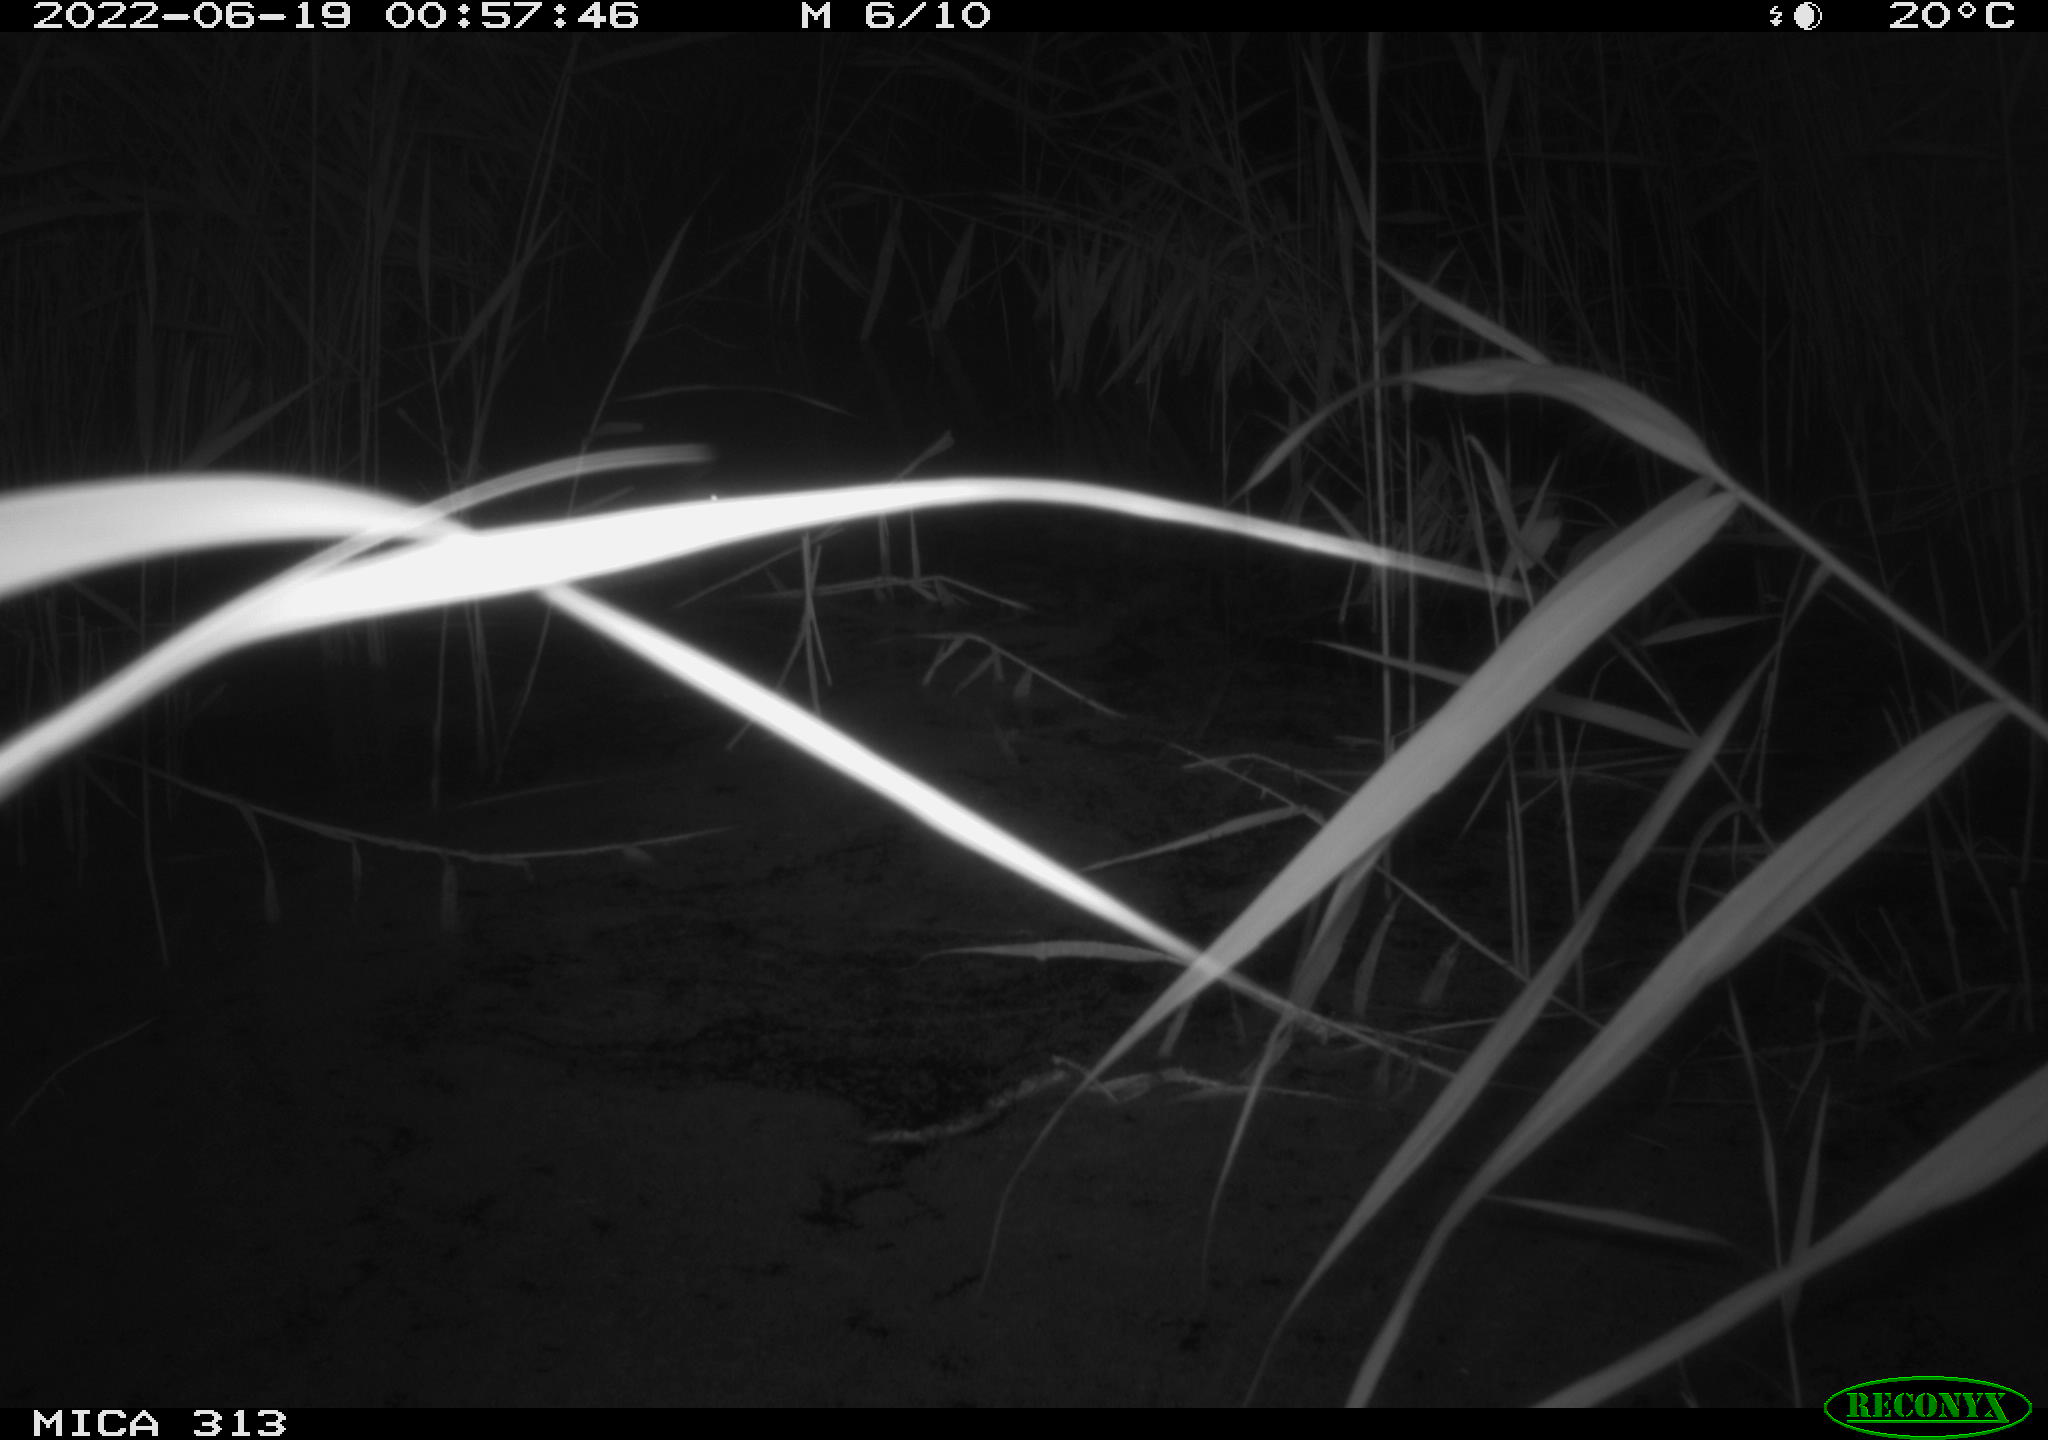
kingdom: Animalia
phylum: Chordata
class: Aves
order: Anseriformes
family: Anatidae
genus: Anas
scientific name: Anas platyrhynchos
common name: Mallard
